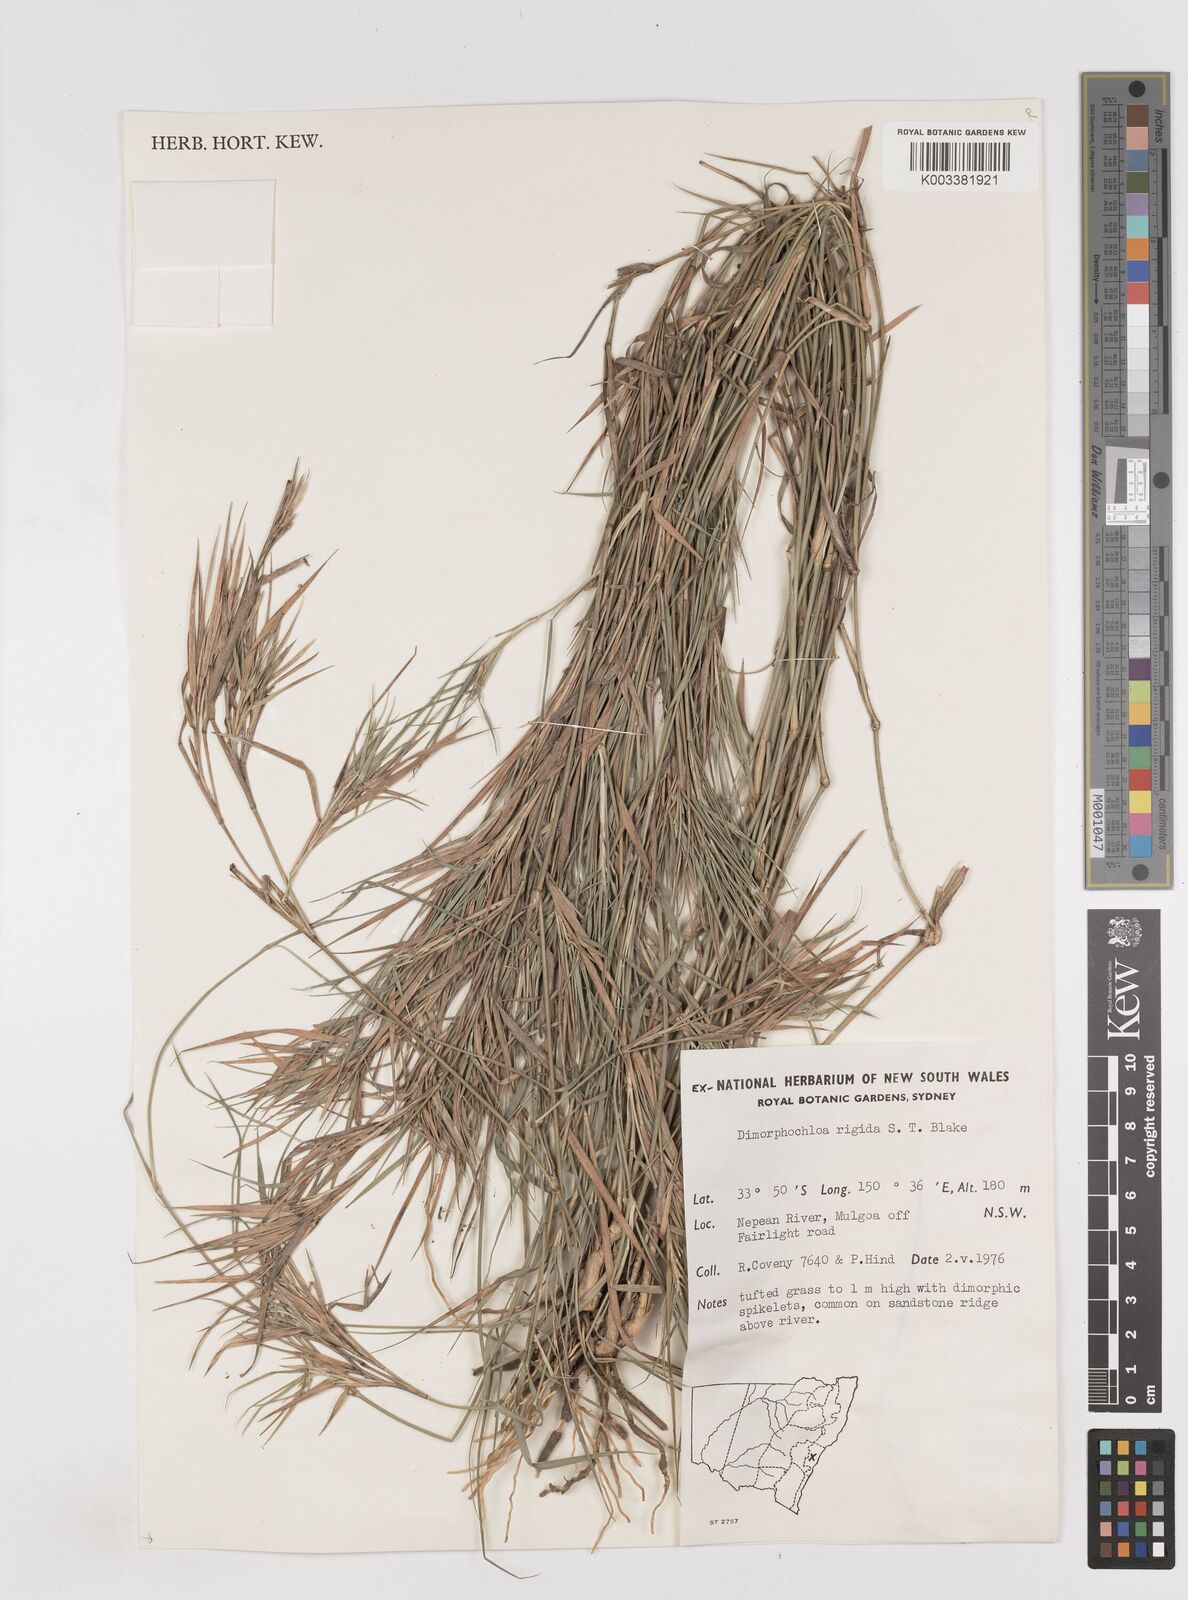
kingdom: Plantae
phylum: Tracheophyta
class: Liliopsida
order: Poales
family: Poaceae
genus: Dimorphochloa
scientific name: Dimorphochloa rigida
